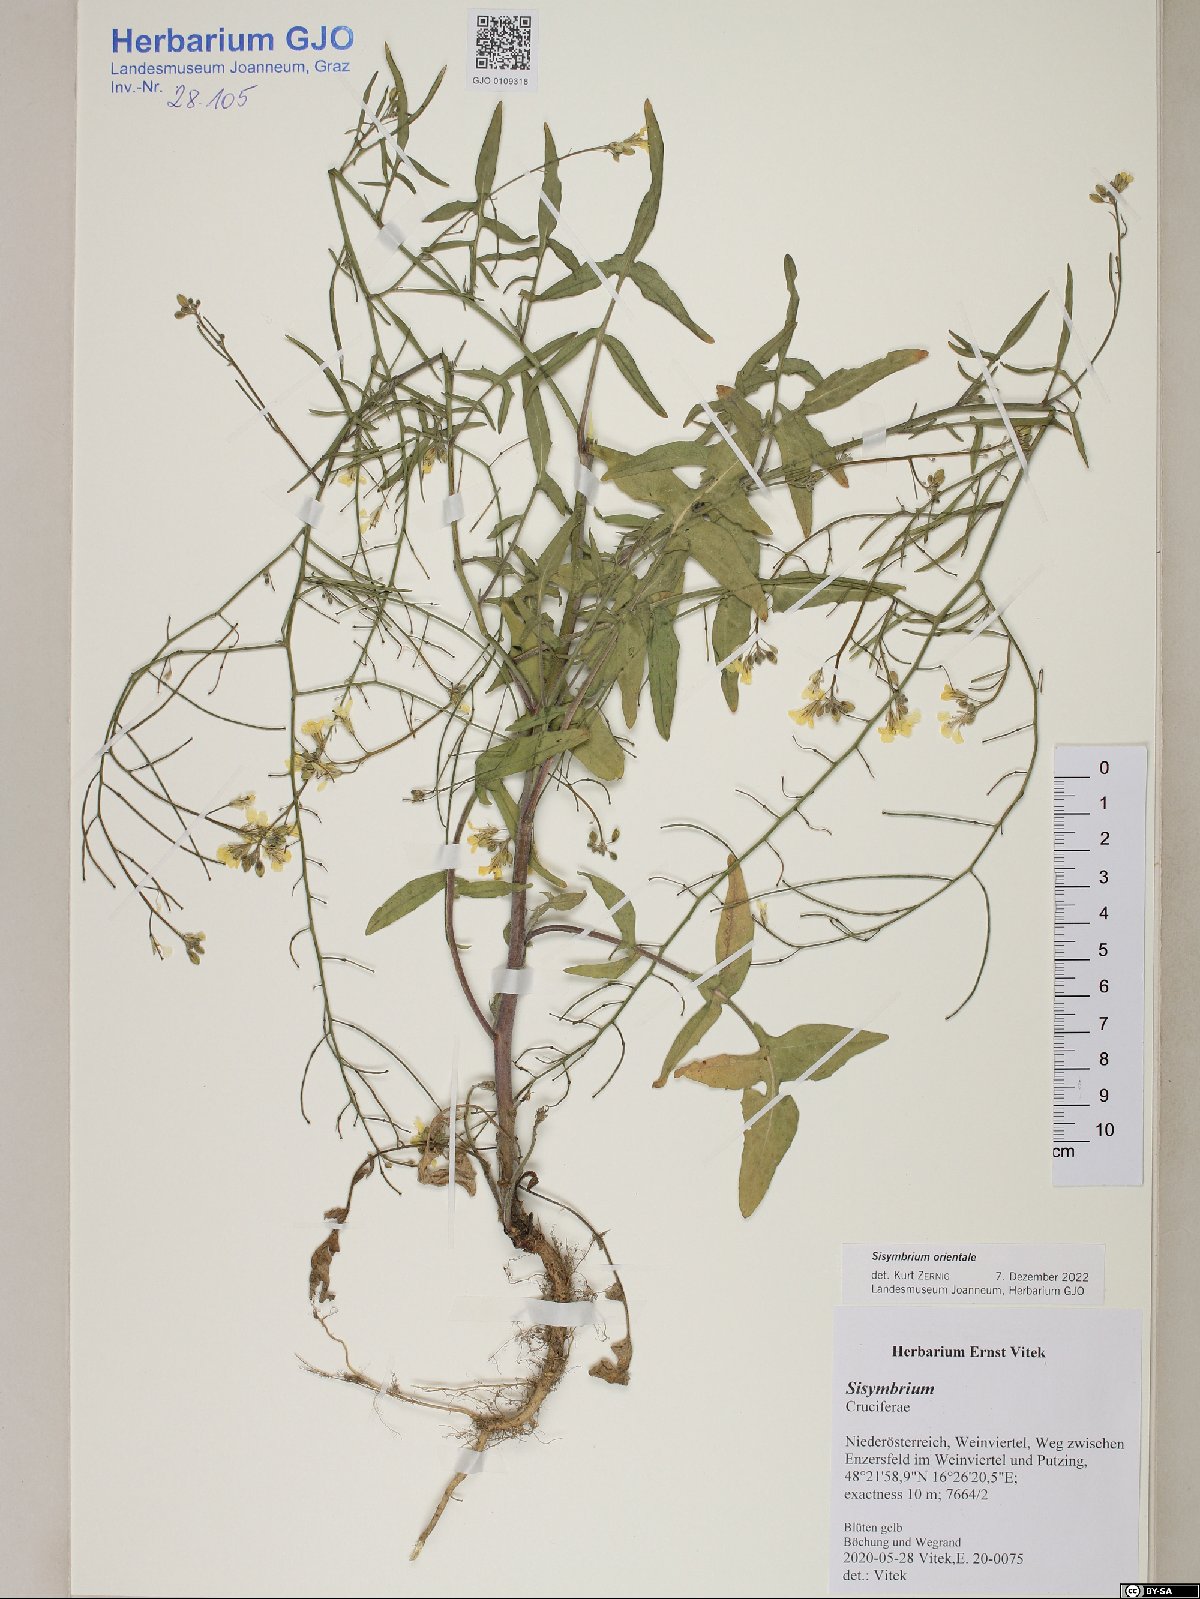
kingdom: Plantae
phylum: Tracheophyta
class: Magnoliopsida
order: Brassicales
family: Brassicaceae
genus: Sisymbrium
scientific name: Sisymbrium orientale
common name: Eastern rocket
